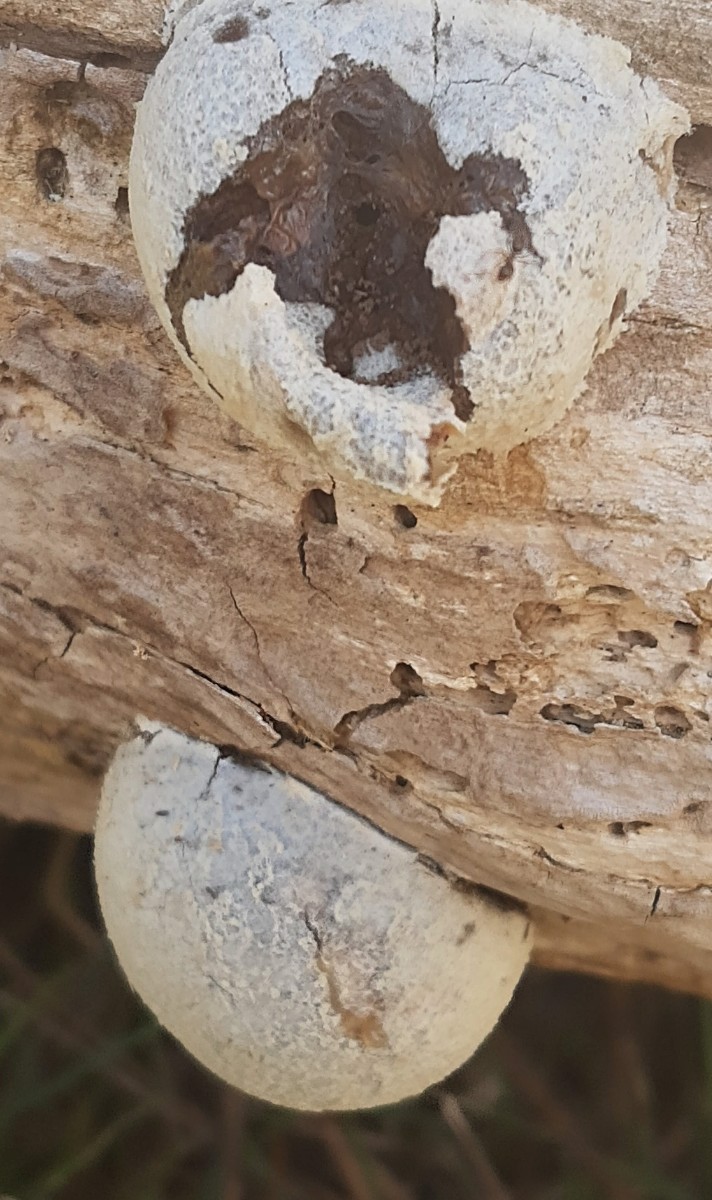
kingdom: Protozoa
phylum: Mycetozoa
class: Myxomycetes
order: Cribrariales
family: Tubiferaceae
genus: Reticularia
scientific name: Reticularia lycoperdon
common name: skinnende støvpude
